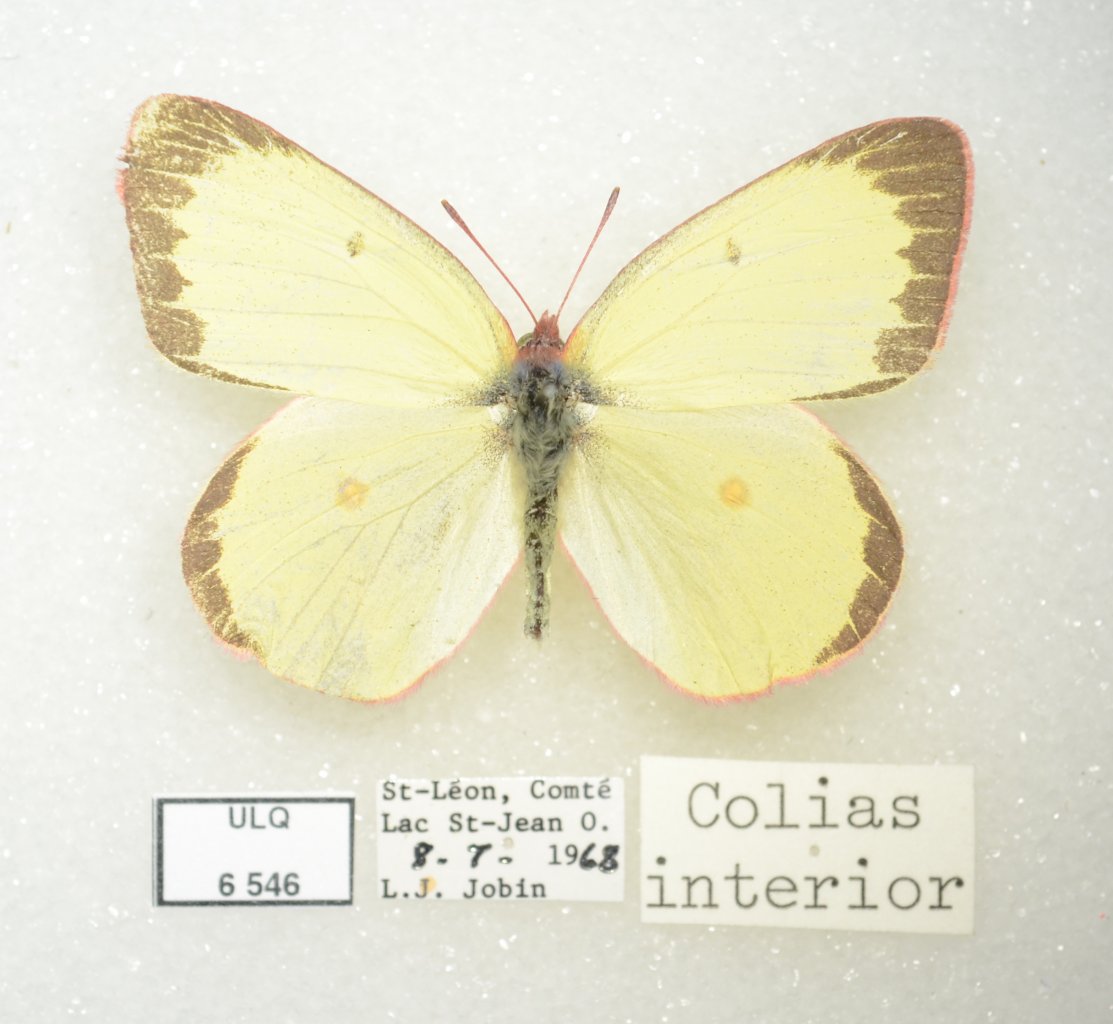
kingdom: Animalia
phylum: Arthropoda
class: Insecta
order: Lepidoptera
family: Pieridae
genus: Colias
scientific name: Colias interior
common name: Pink-edged Sulphur
